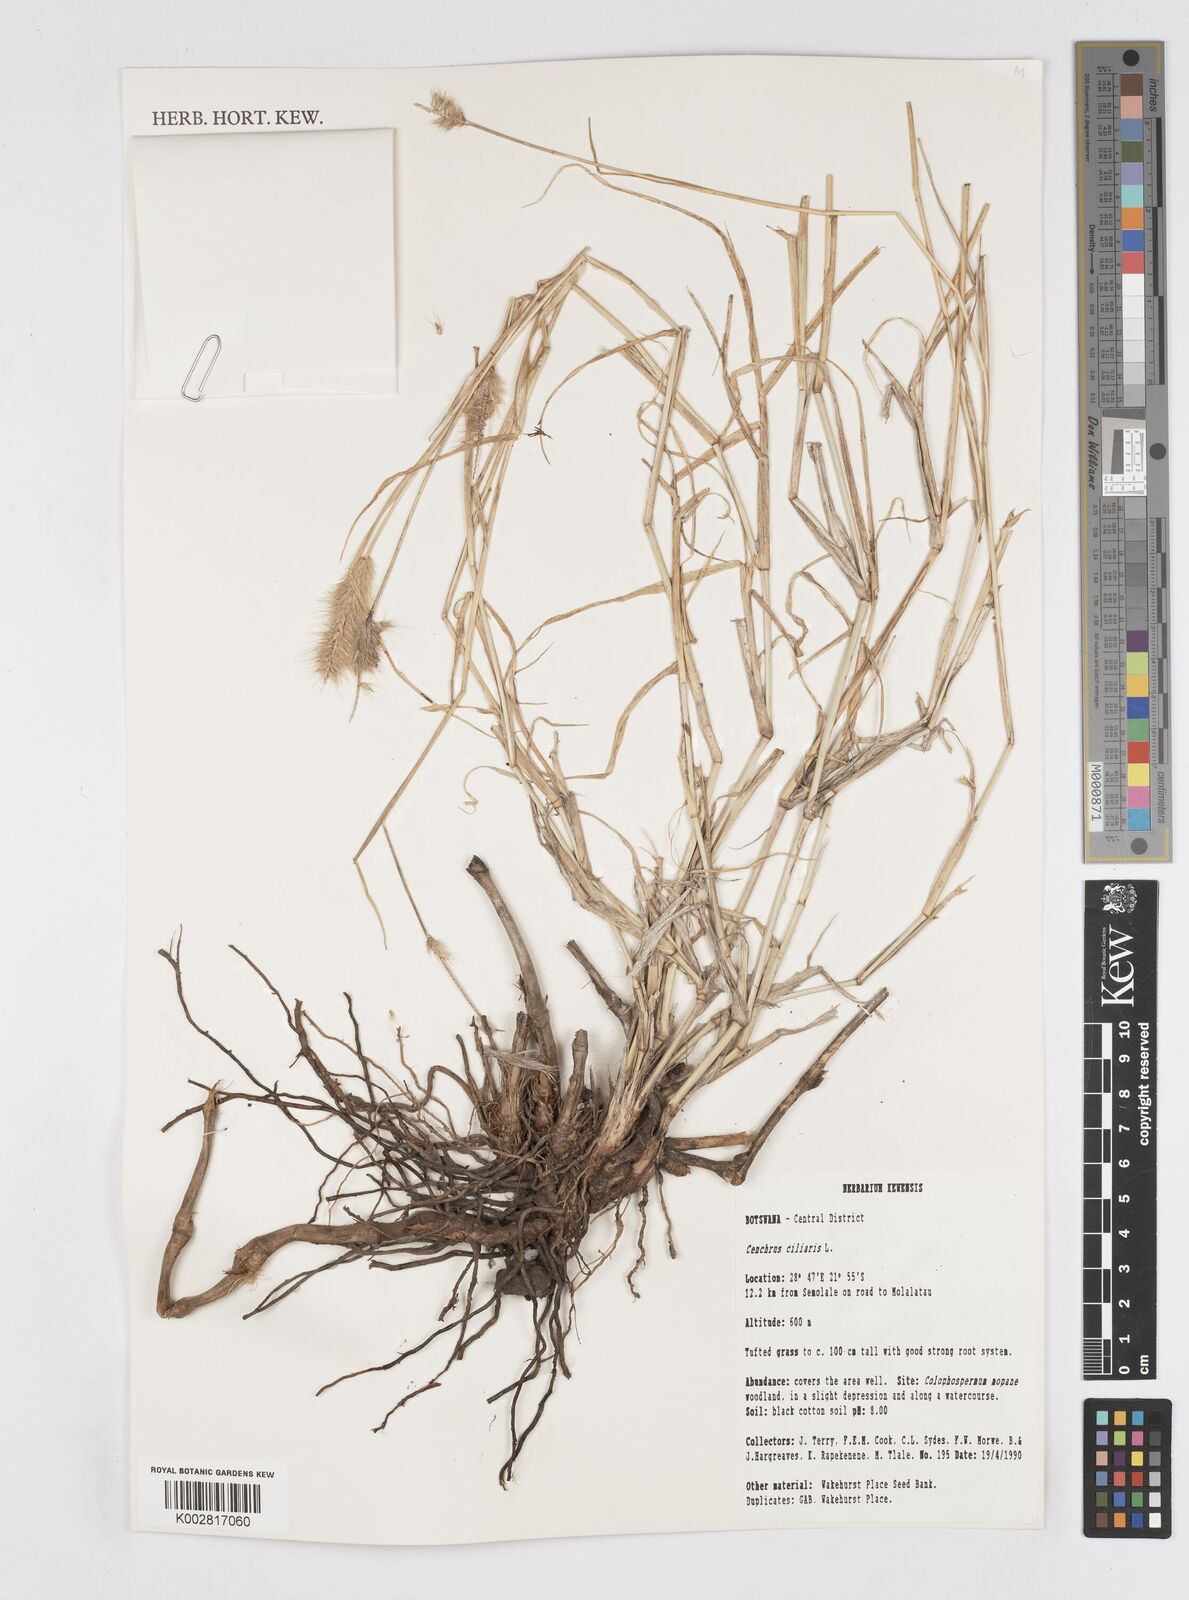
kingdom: Plantae
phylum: Tracheophyta
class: Liliopsida
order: Poales
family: Poaceae
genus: Cenchrus
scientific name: Cenchrus ciliaris
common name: Buffelgrass
